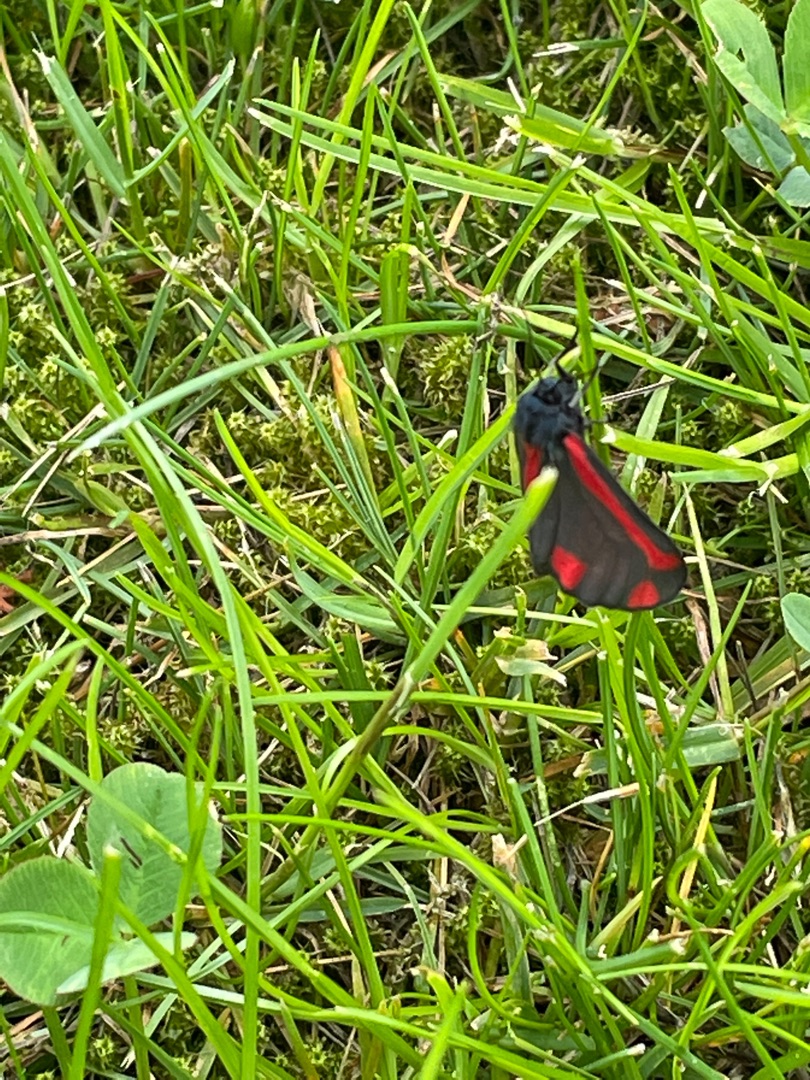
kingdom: Animalia
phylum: Arthropoda
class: Insecta
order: Lepidoptera
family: Erebidae
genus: Tyria
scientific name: Tyria jacobaeae
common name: Blodplet
